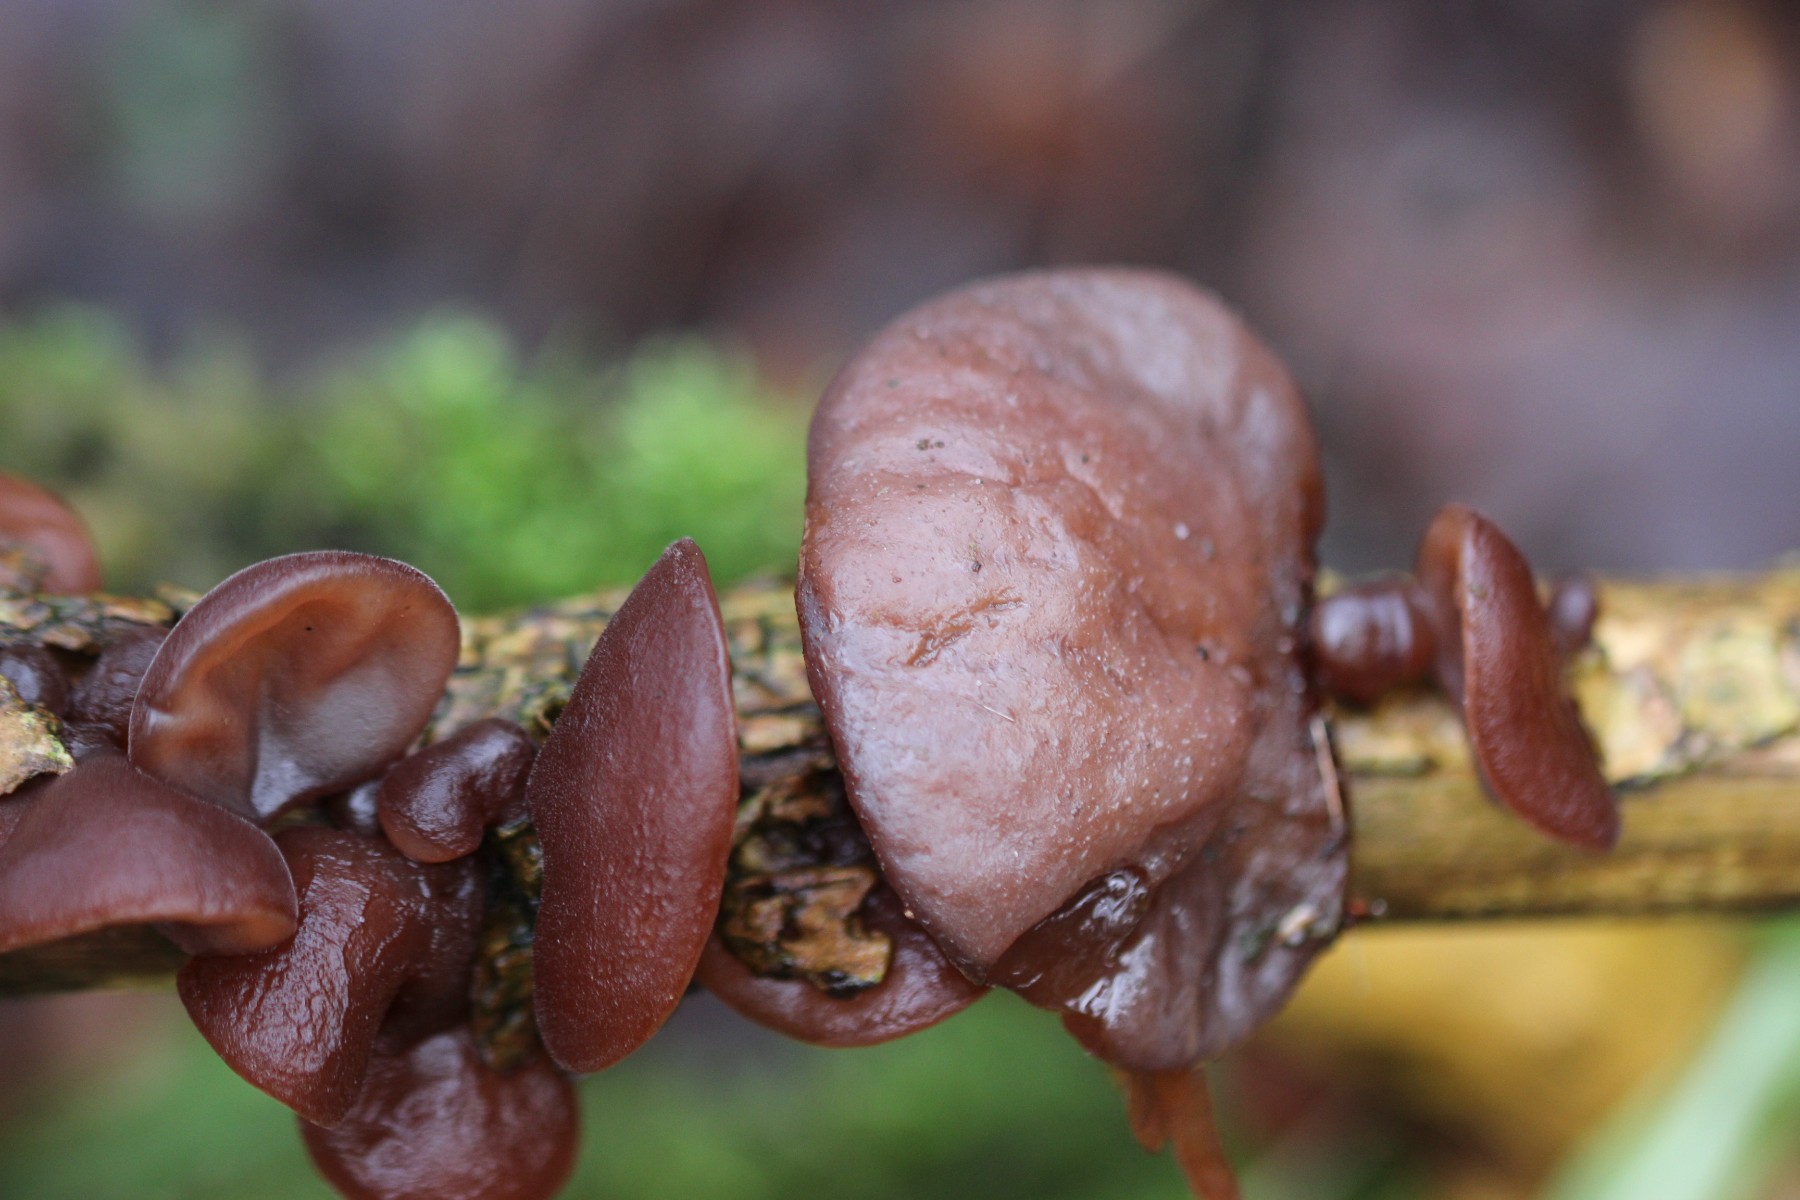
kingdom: Fungi
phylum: Basidiomycota
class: Agaricomycetes
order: Auriculariales
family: Auriculariaceae
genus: Auricularia
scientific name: Auricularia auricula-judae
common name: almindelig judasøre
